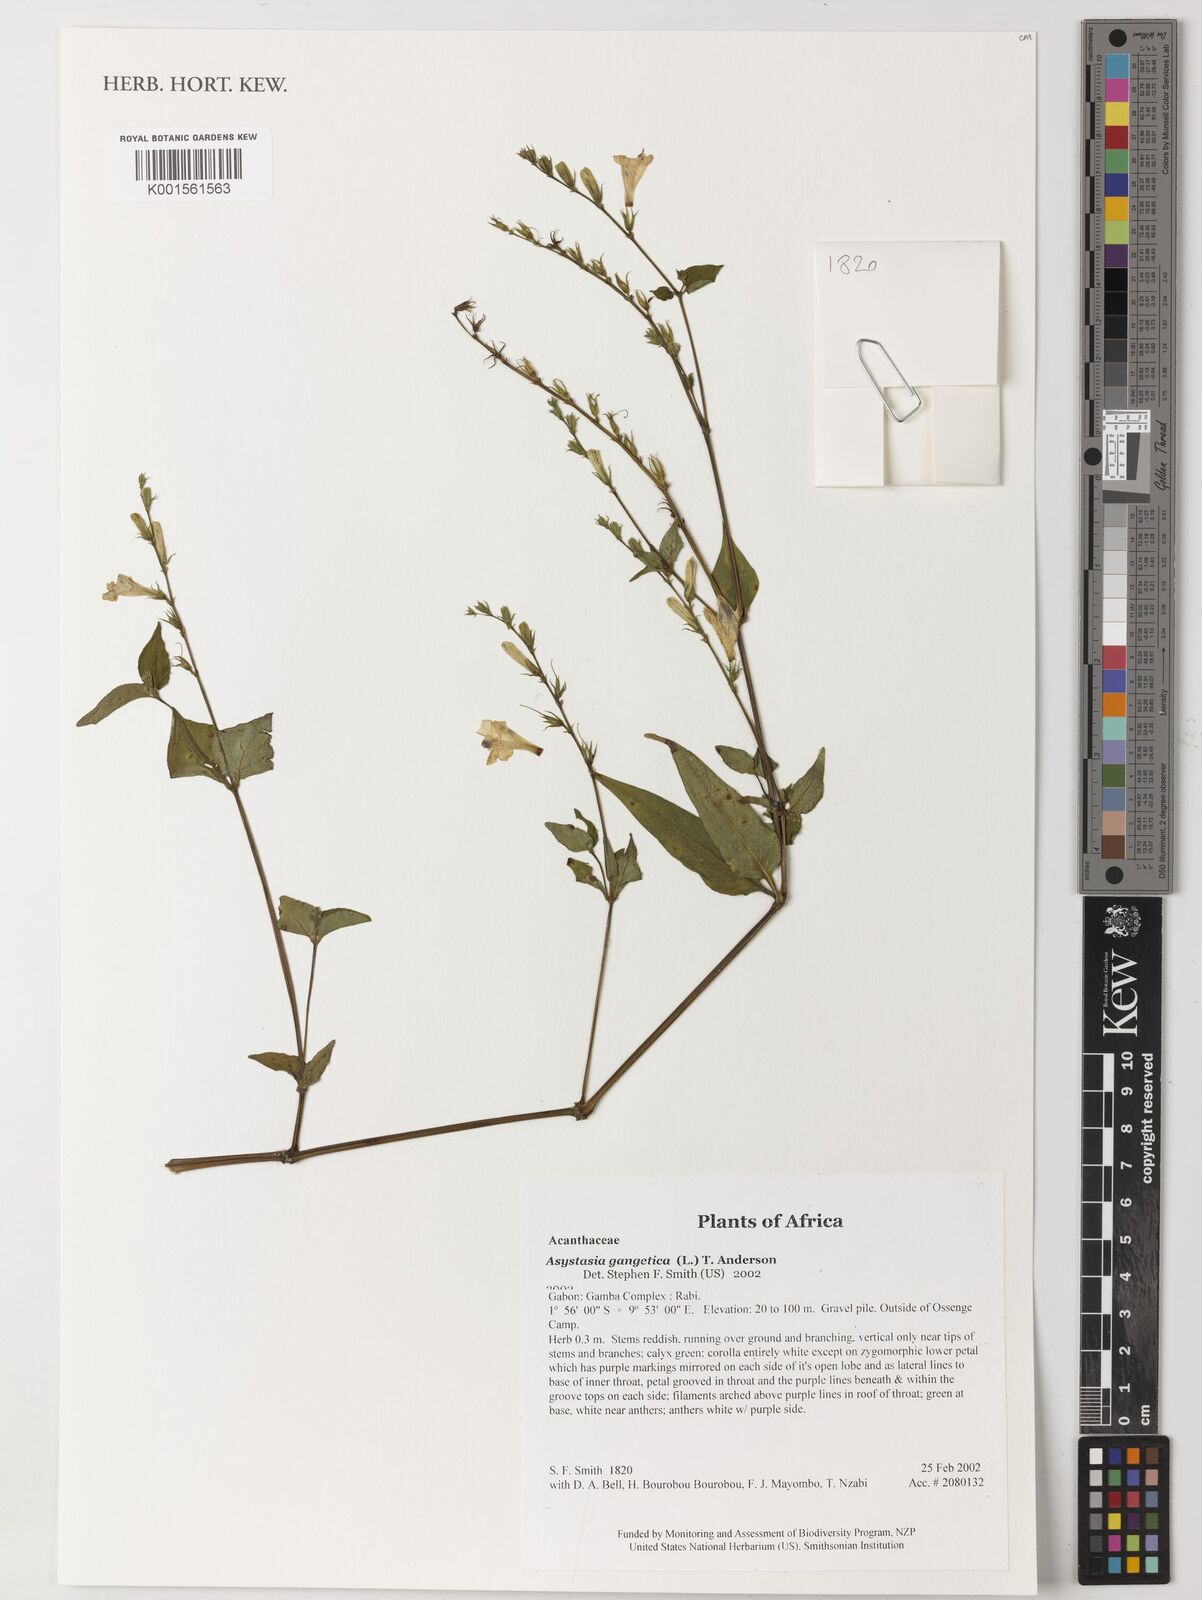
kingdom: Plantae
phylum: Tracheophyta
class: Magnoliopsida
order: Lamiales
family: Acanthaceae
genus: Asystasia
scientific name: Asystasia gangetica
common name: Chinese violet
